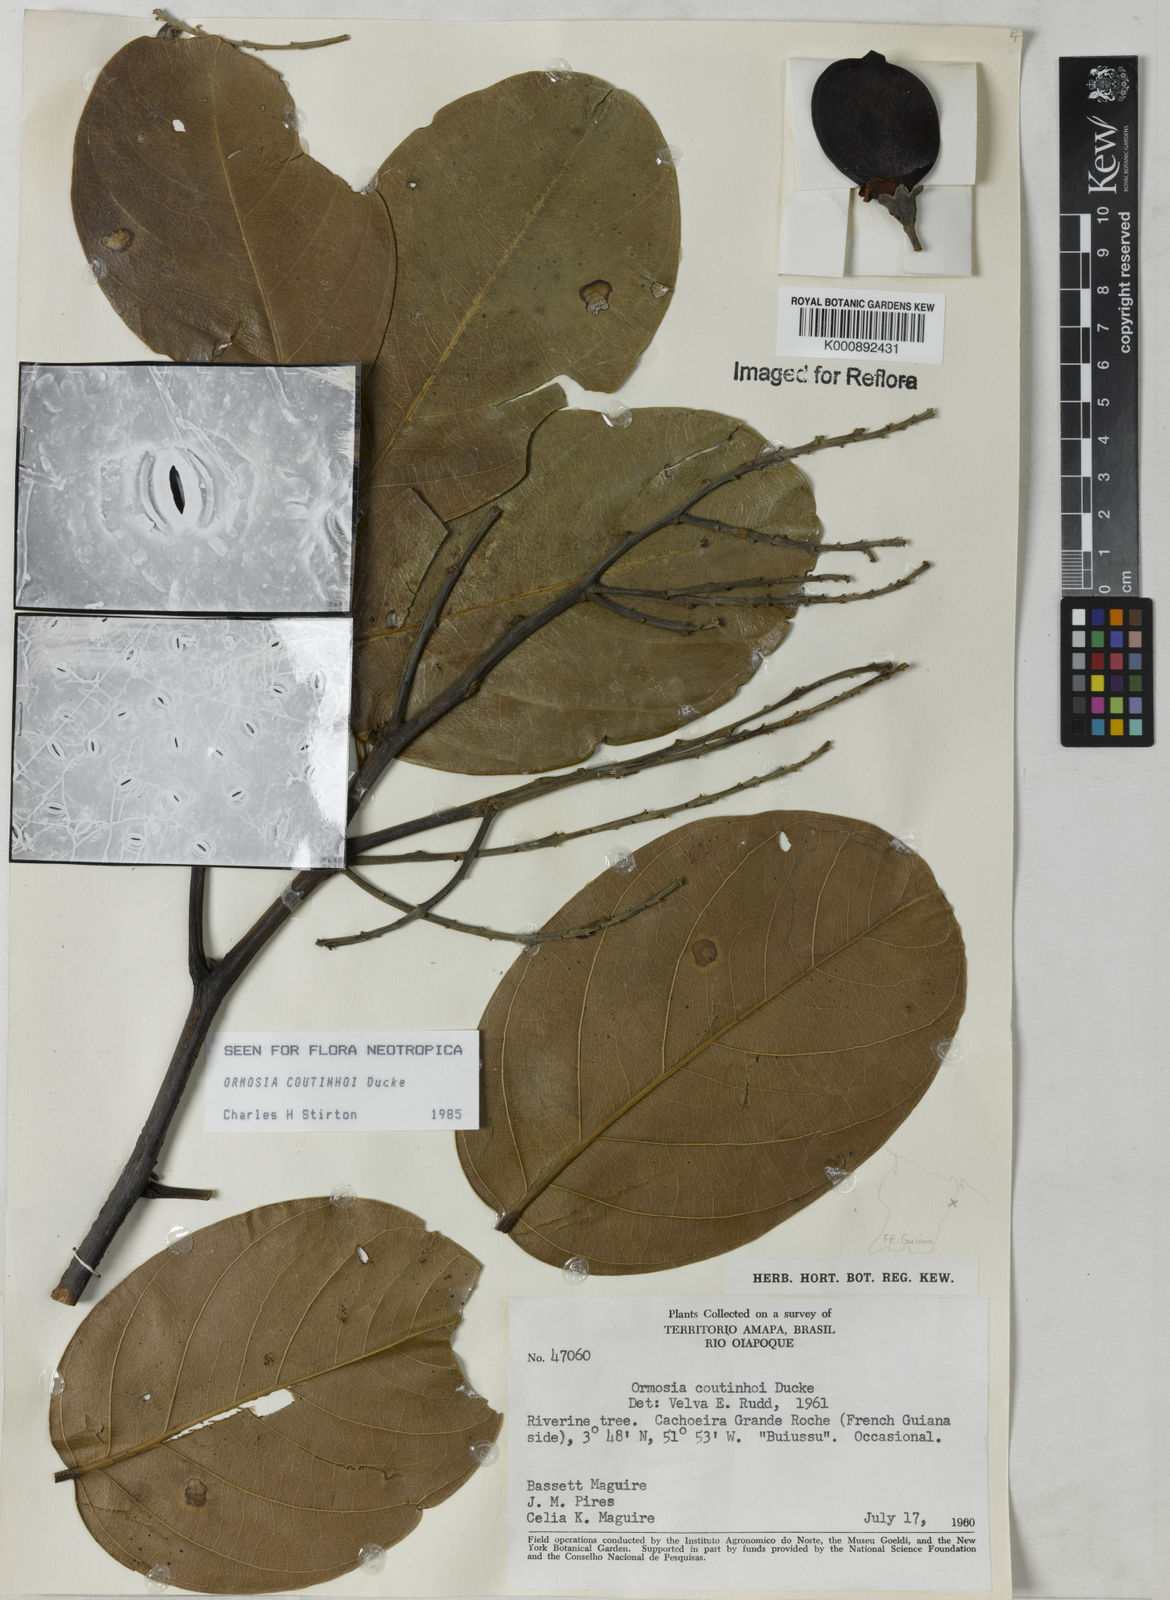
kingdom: Plantae
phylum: Tracheophyta
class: Magnoliopsida
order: Fabales
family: Fabaceae
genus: Ormosia
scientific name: Ormosia coutinhoi
